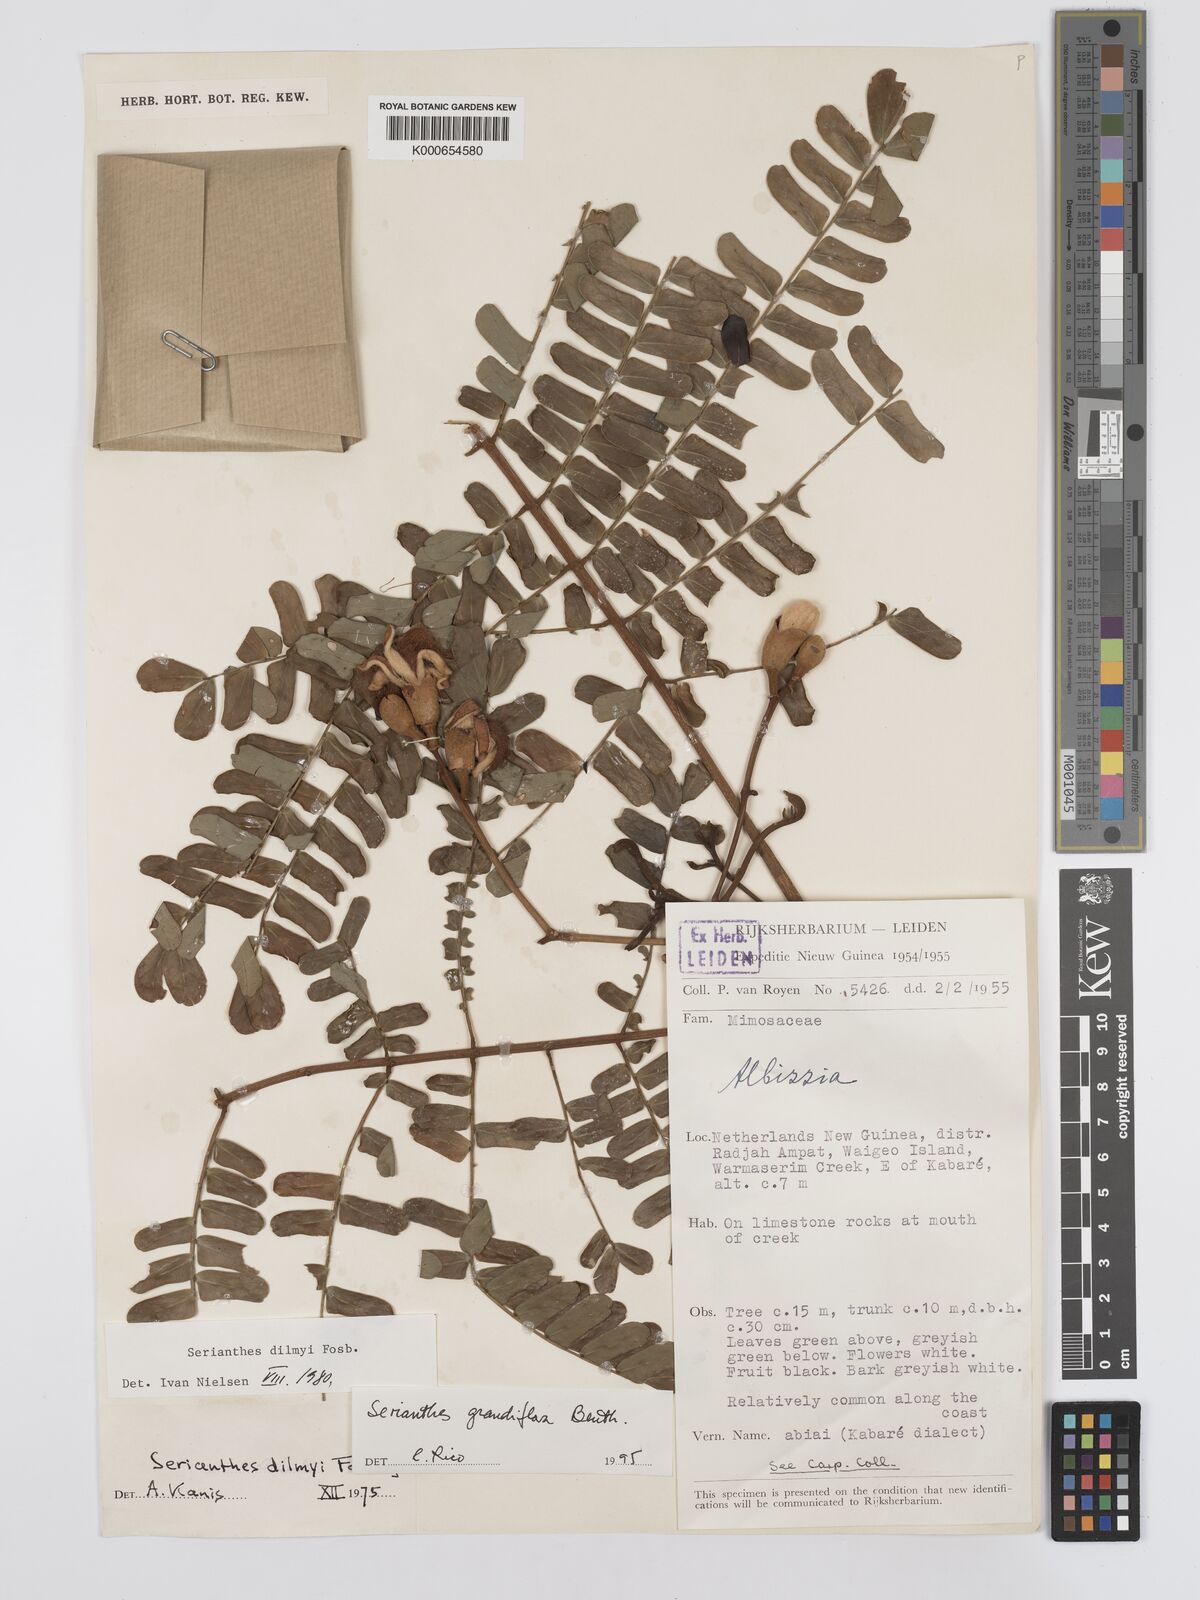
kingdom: Plantae
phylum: Tracheophyta
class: Magnoliopsida
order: Fabales
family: Fabaceae
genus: Serianthes
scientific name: Serianthes grandiflora
